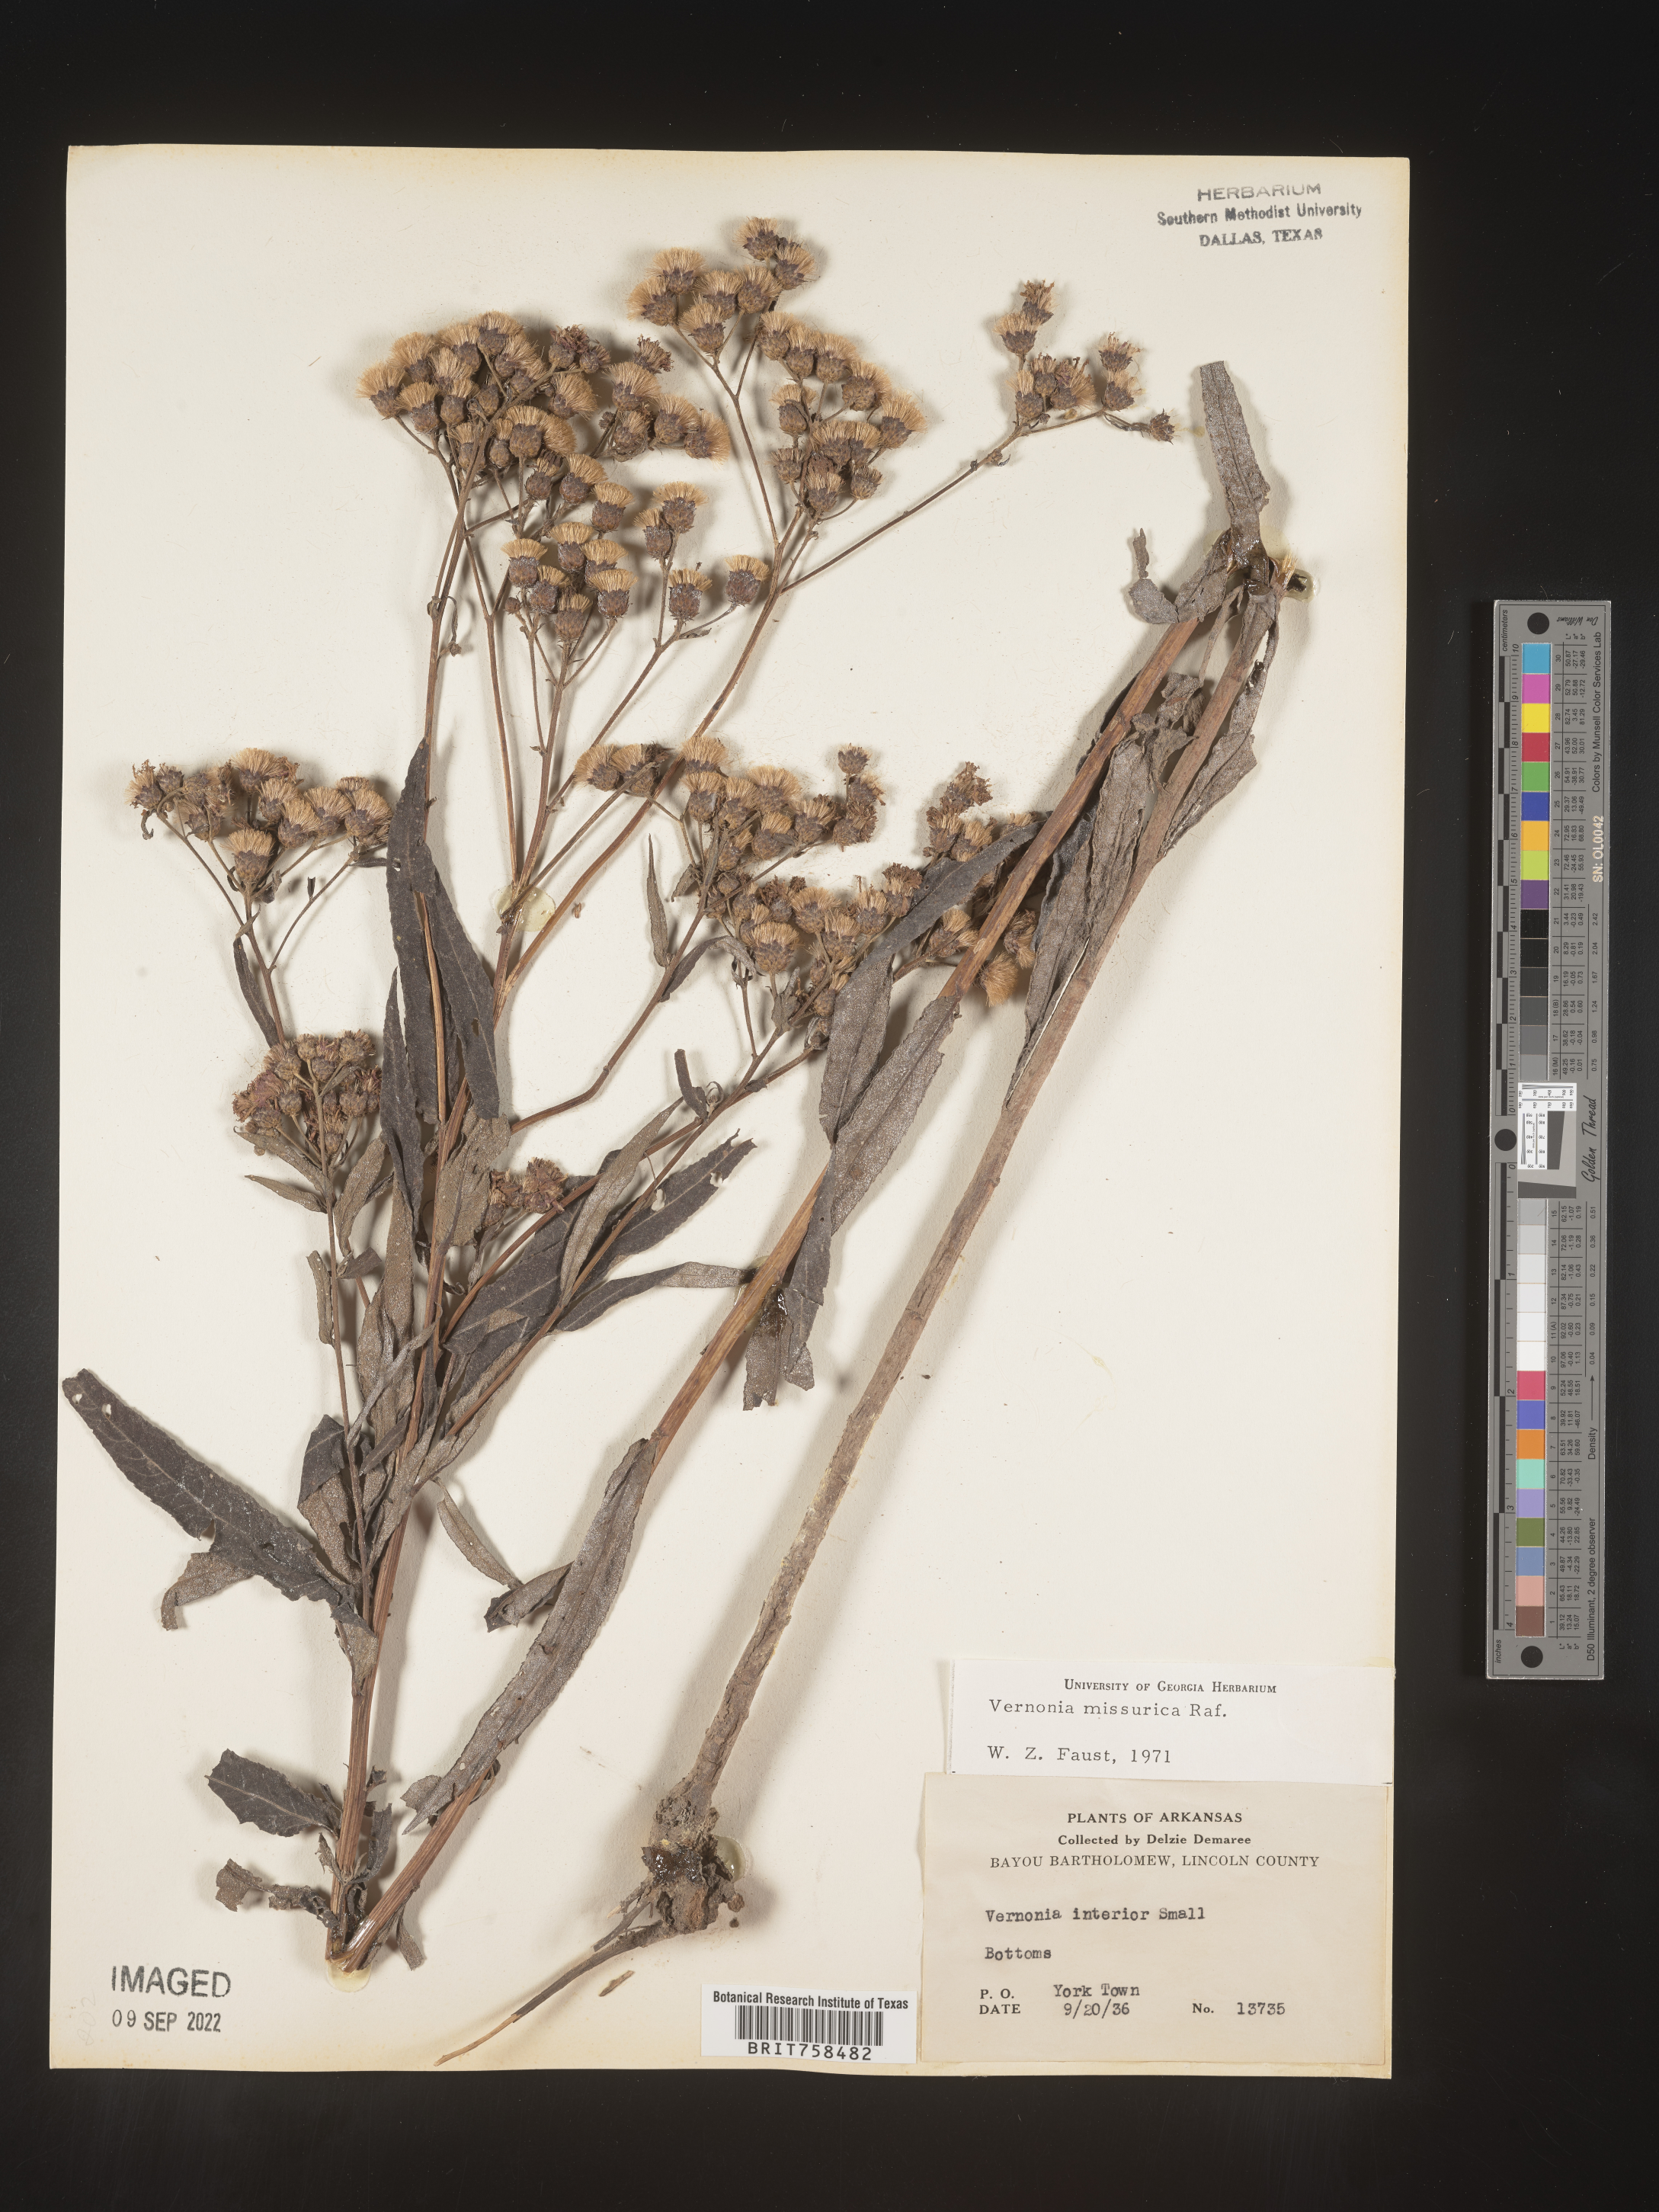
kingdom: Plantae
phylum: Tracheophyta
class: Magnoliopsida
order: Asterales
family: Asteraceae
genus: Vernonia
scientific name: Vernonia missurica
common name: Missouri ironweed
